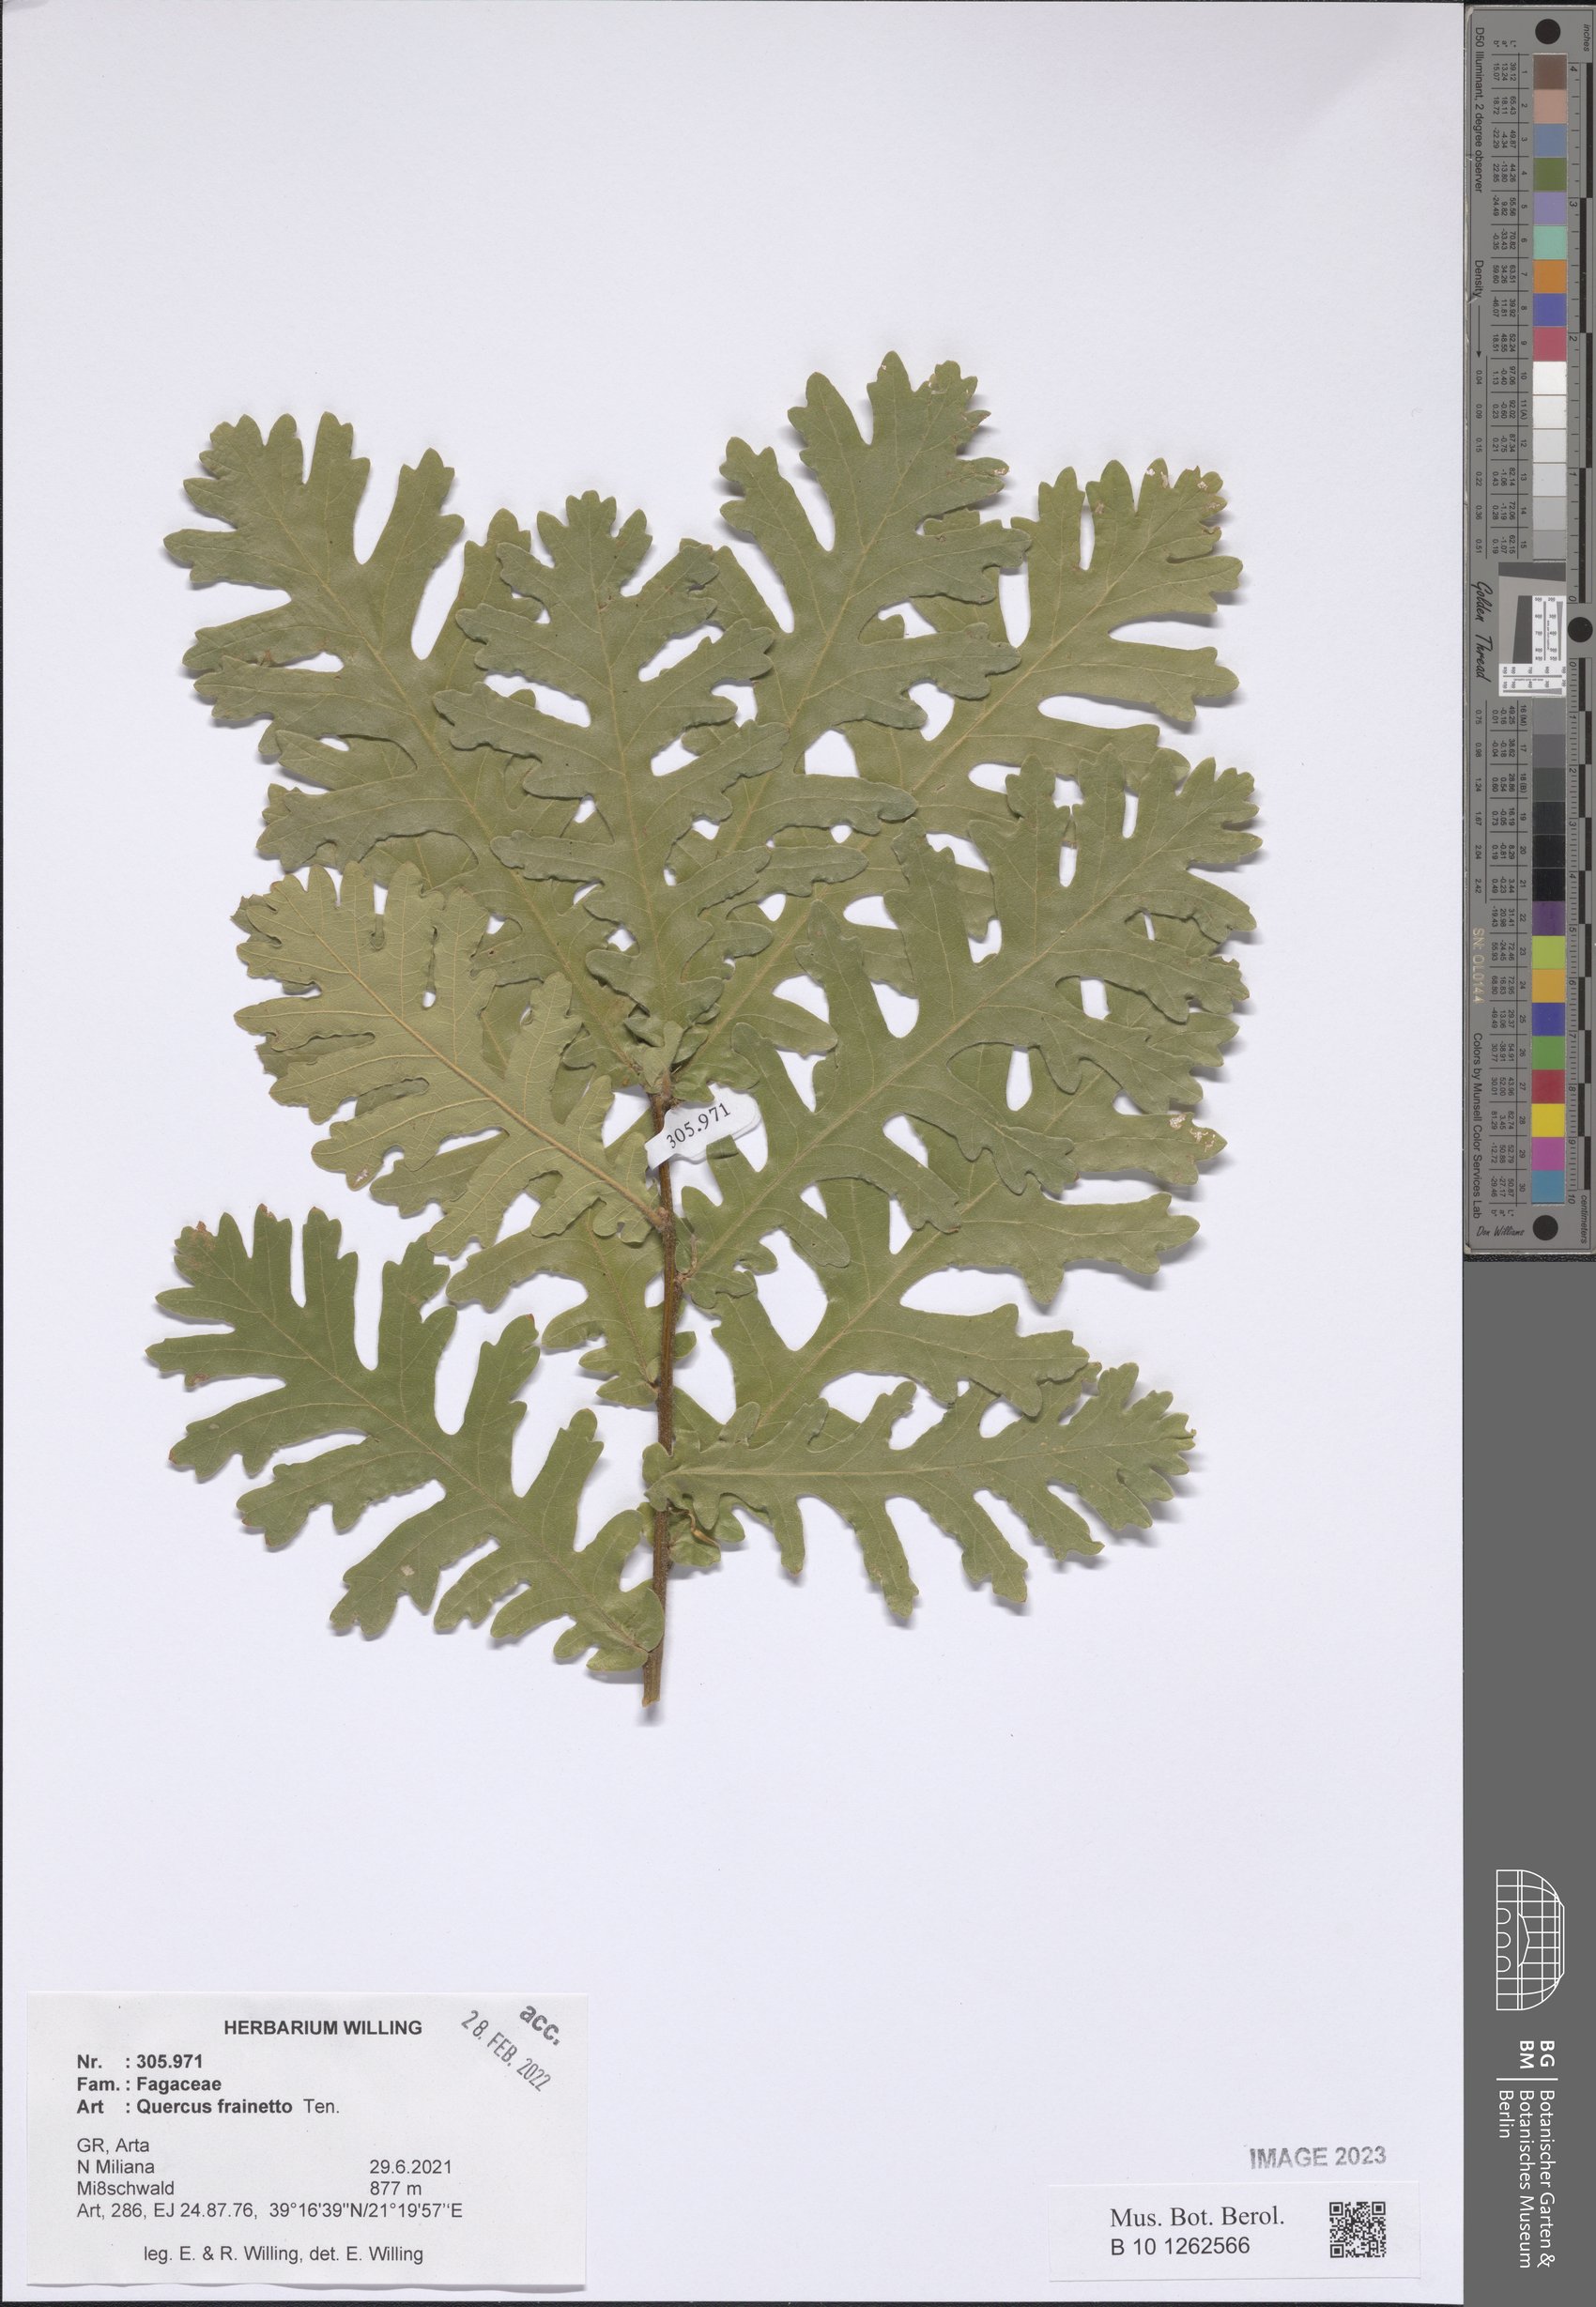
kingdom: Plantae
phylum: Tracheophyta
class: Magnoliopsida
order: Fagales
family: Fagaceae
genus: Quercus
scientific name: Quercus conferta
